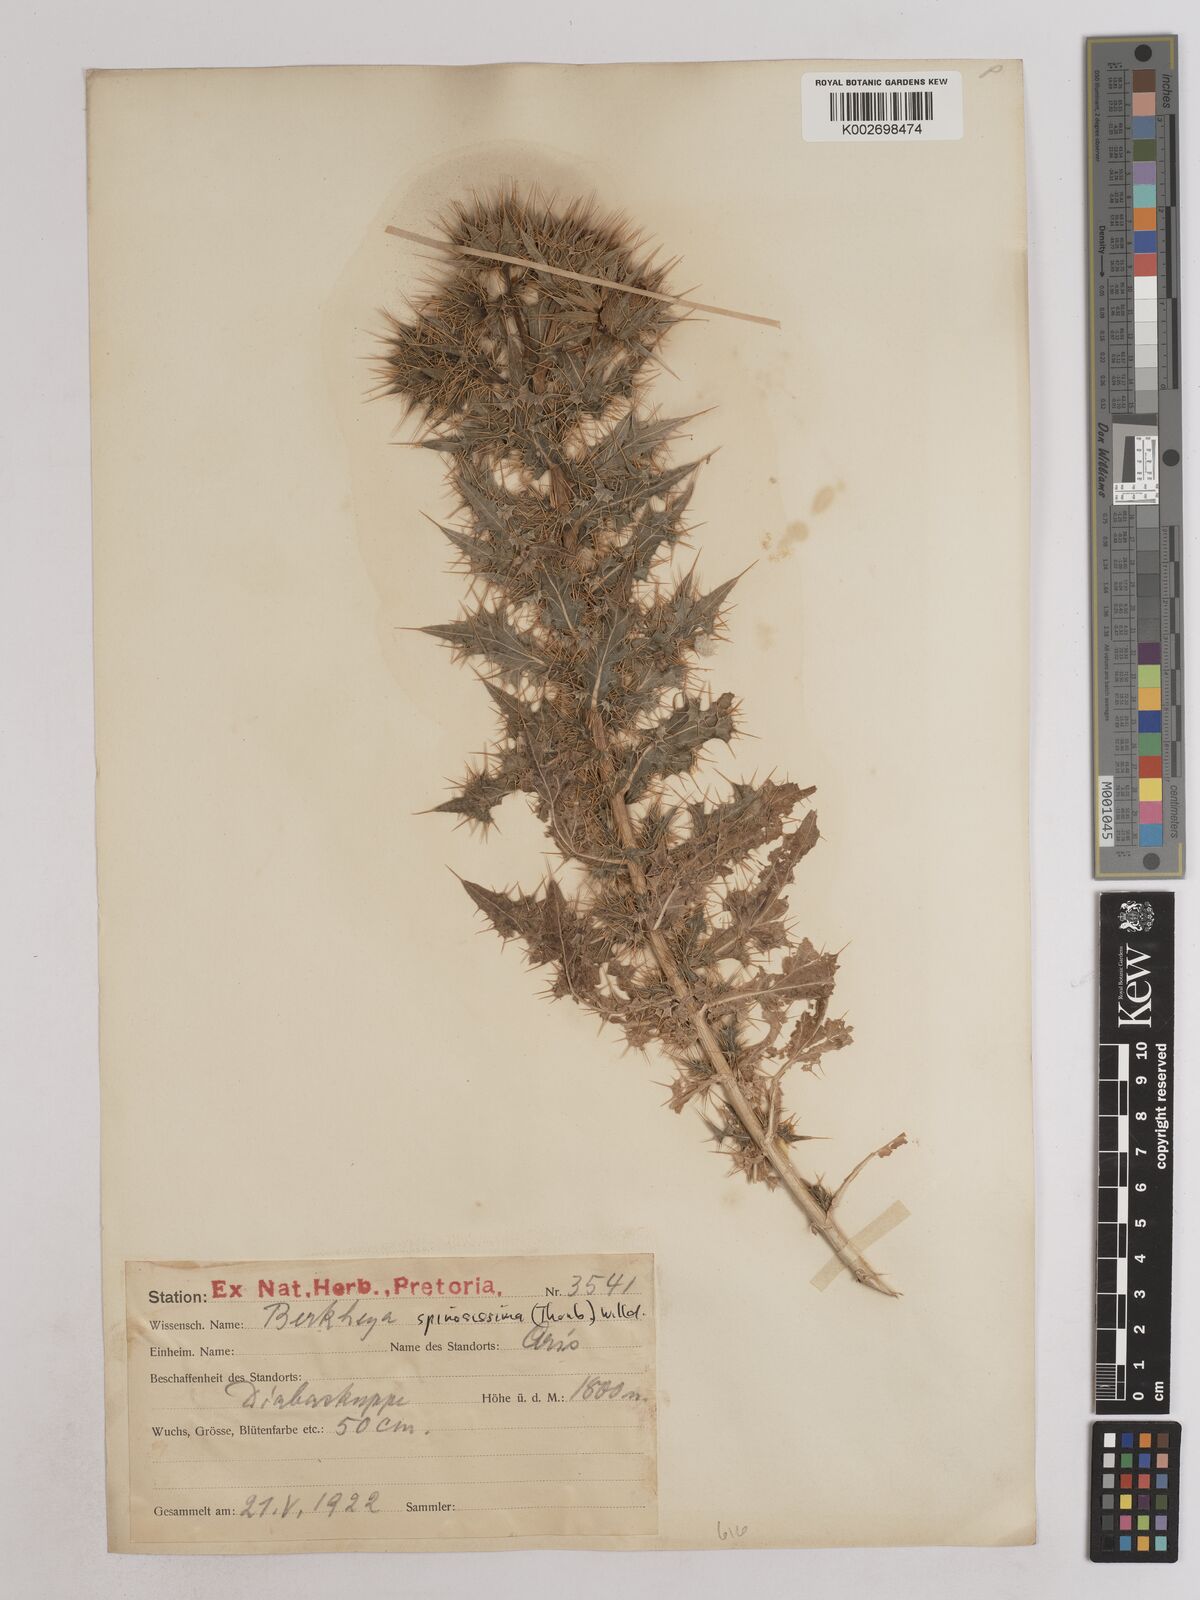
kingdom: Plantae
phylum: Tracheophyta
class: Magnoliopsida
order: Asterales
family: Asteraceae
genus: Berkheya
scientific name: Berkheya spinosissima
